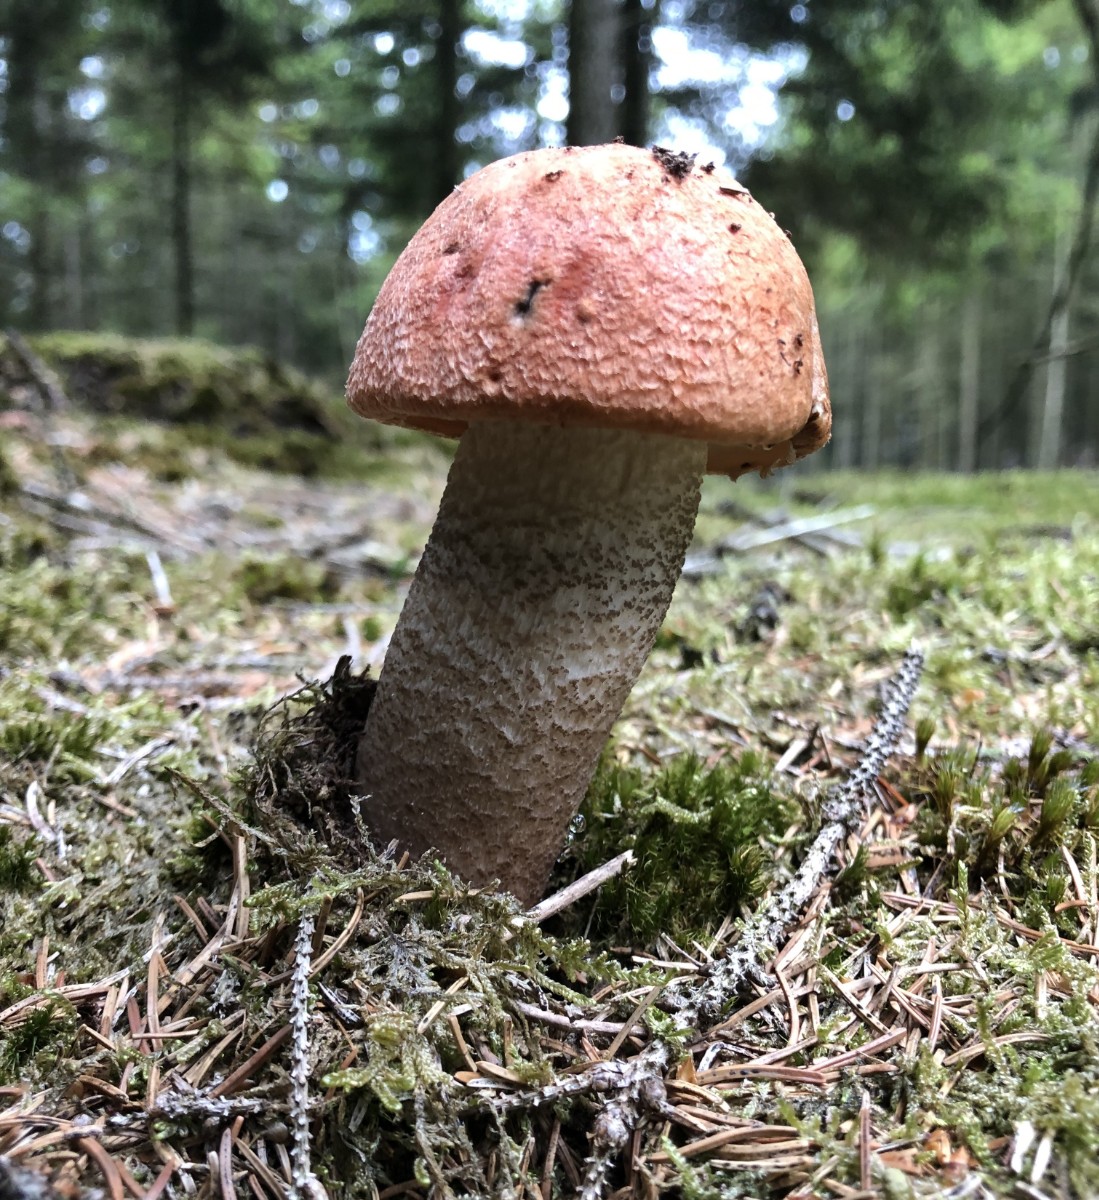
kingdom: Fungi
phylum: Basidiomycota
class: Agaricomycetes
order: Boletales
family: Boletaceae
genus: Leccinum
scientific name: Leccinum vulpinum
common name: fyrre-skælrørhat
